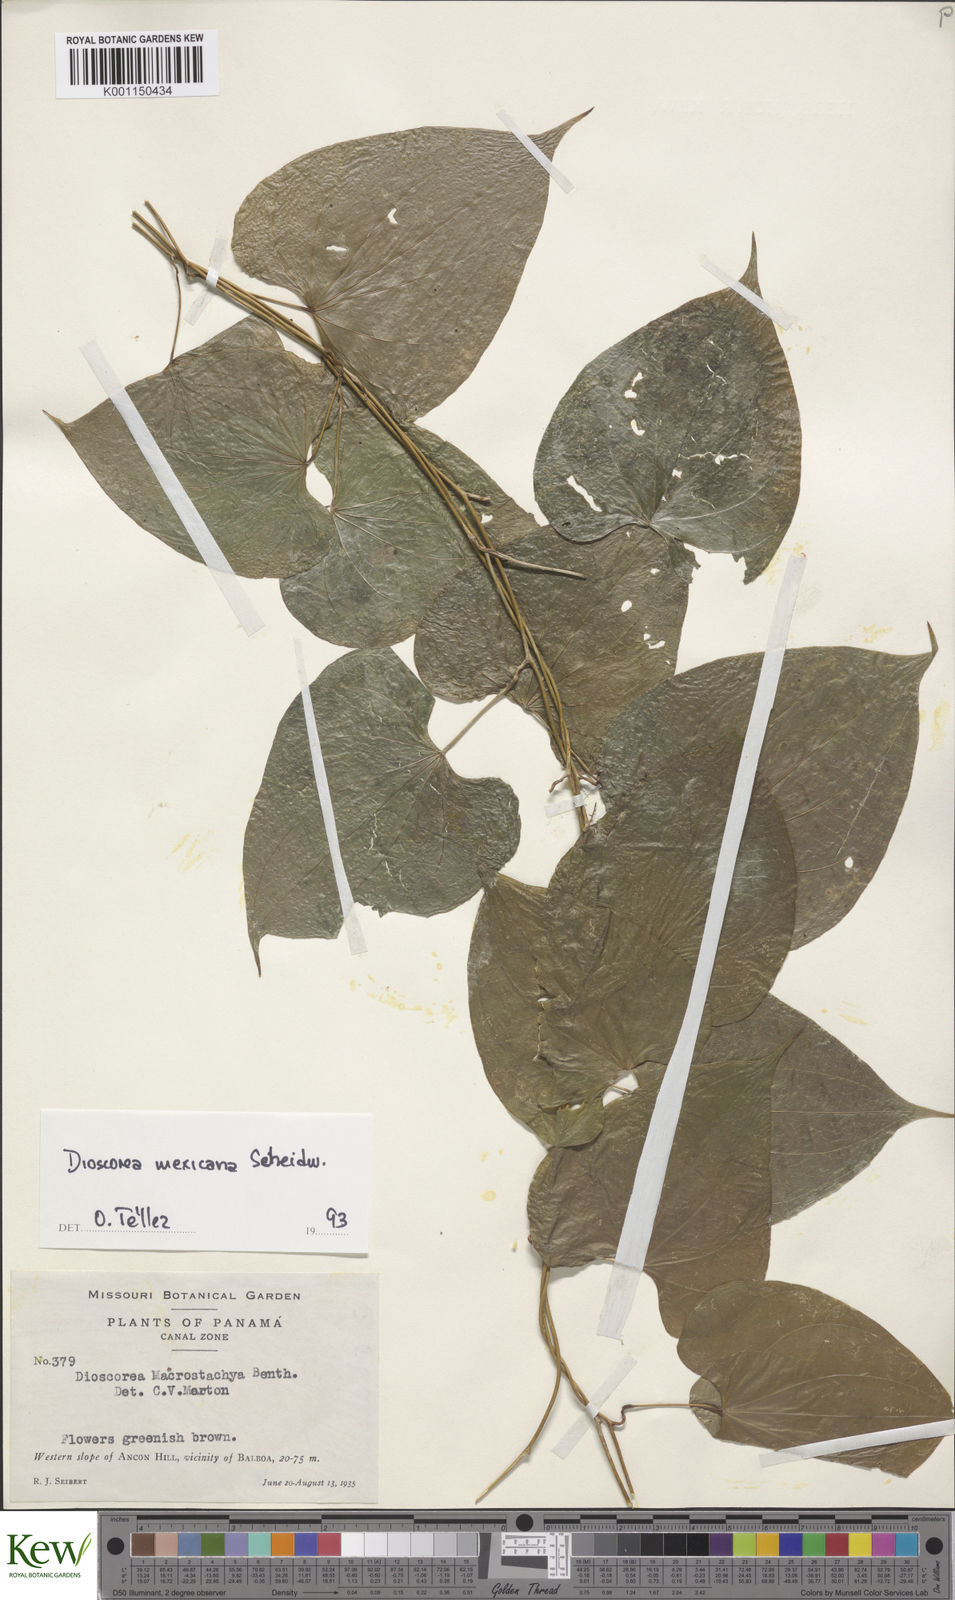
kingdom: Plantae
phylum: Tracheophyta
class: Liliopsida
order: Dioscoreales
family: Dioscoreaceae
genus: Dioscorea
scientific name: Dioscorea mexicana
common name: Mexican yam
